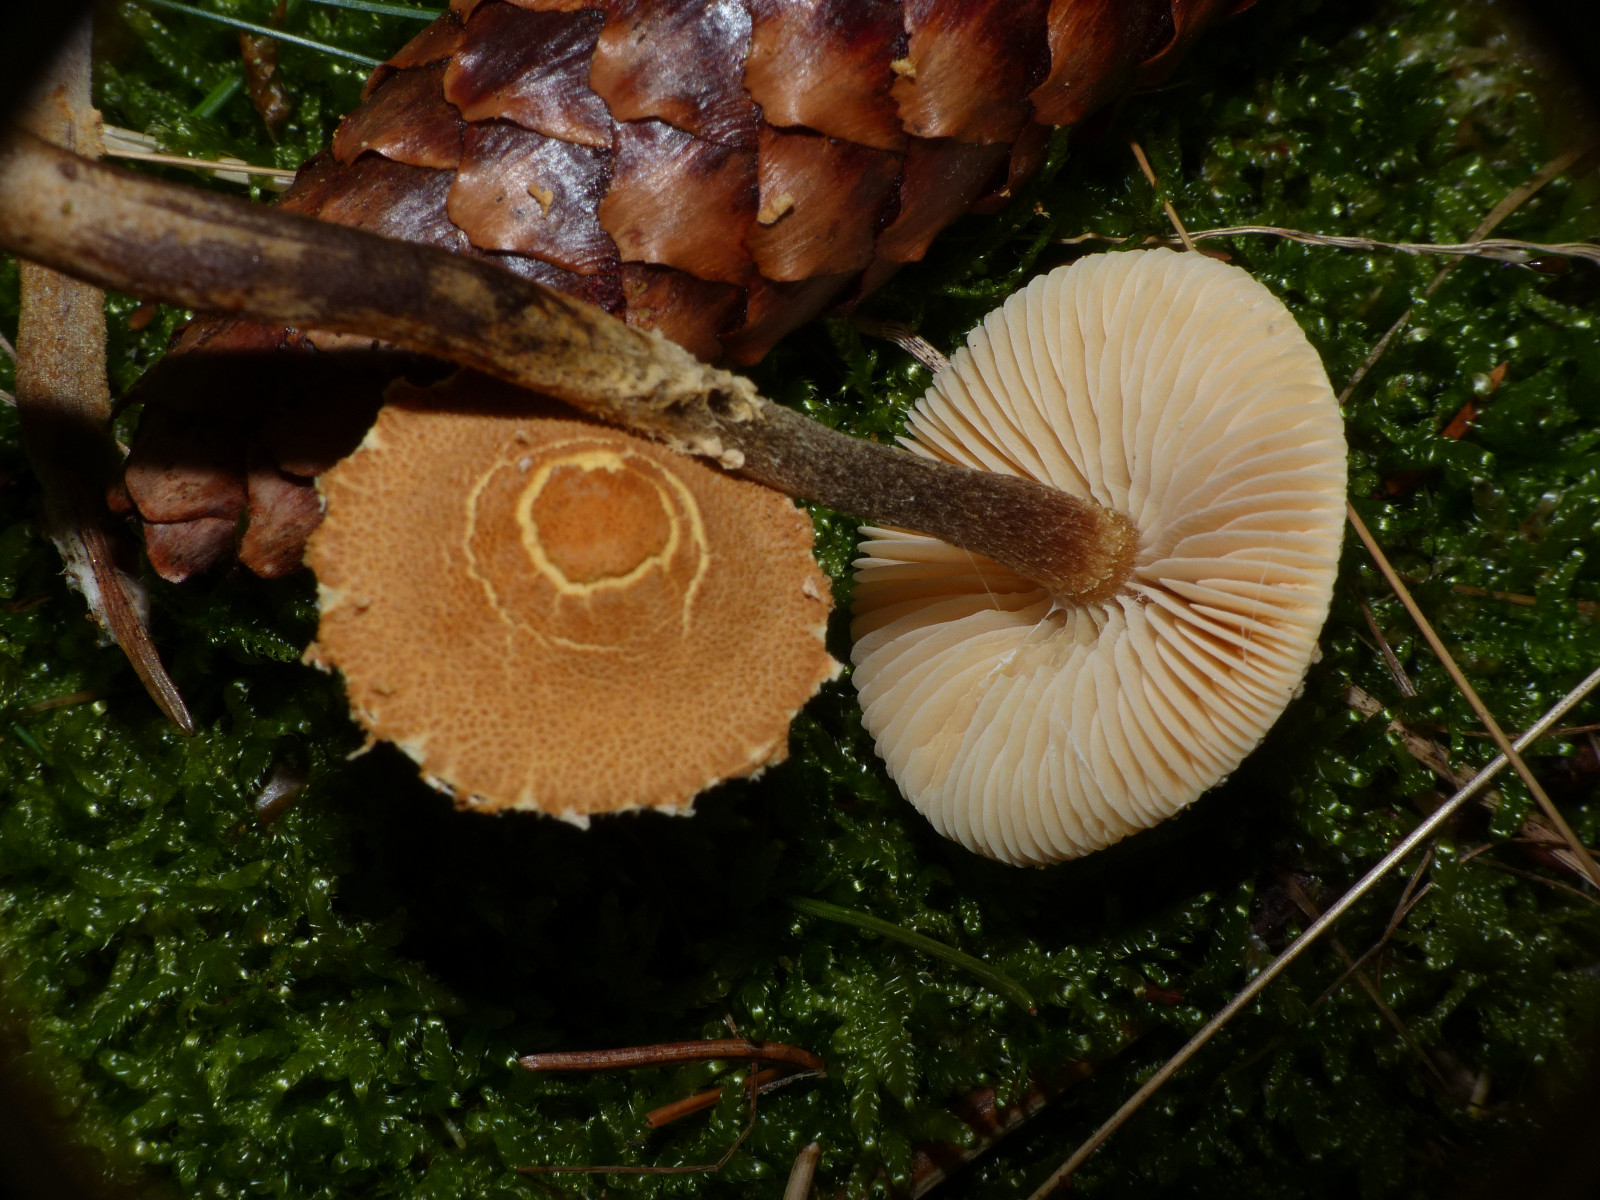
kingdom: Fungi
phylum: Basidiomycota
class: Agaricomycetes
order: Agaricales
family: Tricholomataceae
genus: Cystoderma
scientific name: Cystoderma jasonis
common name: gulkødet grynhat
